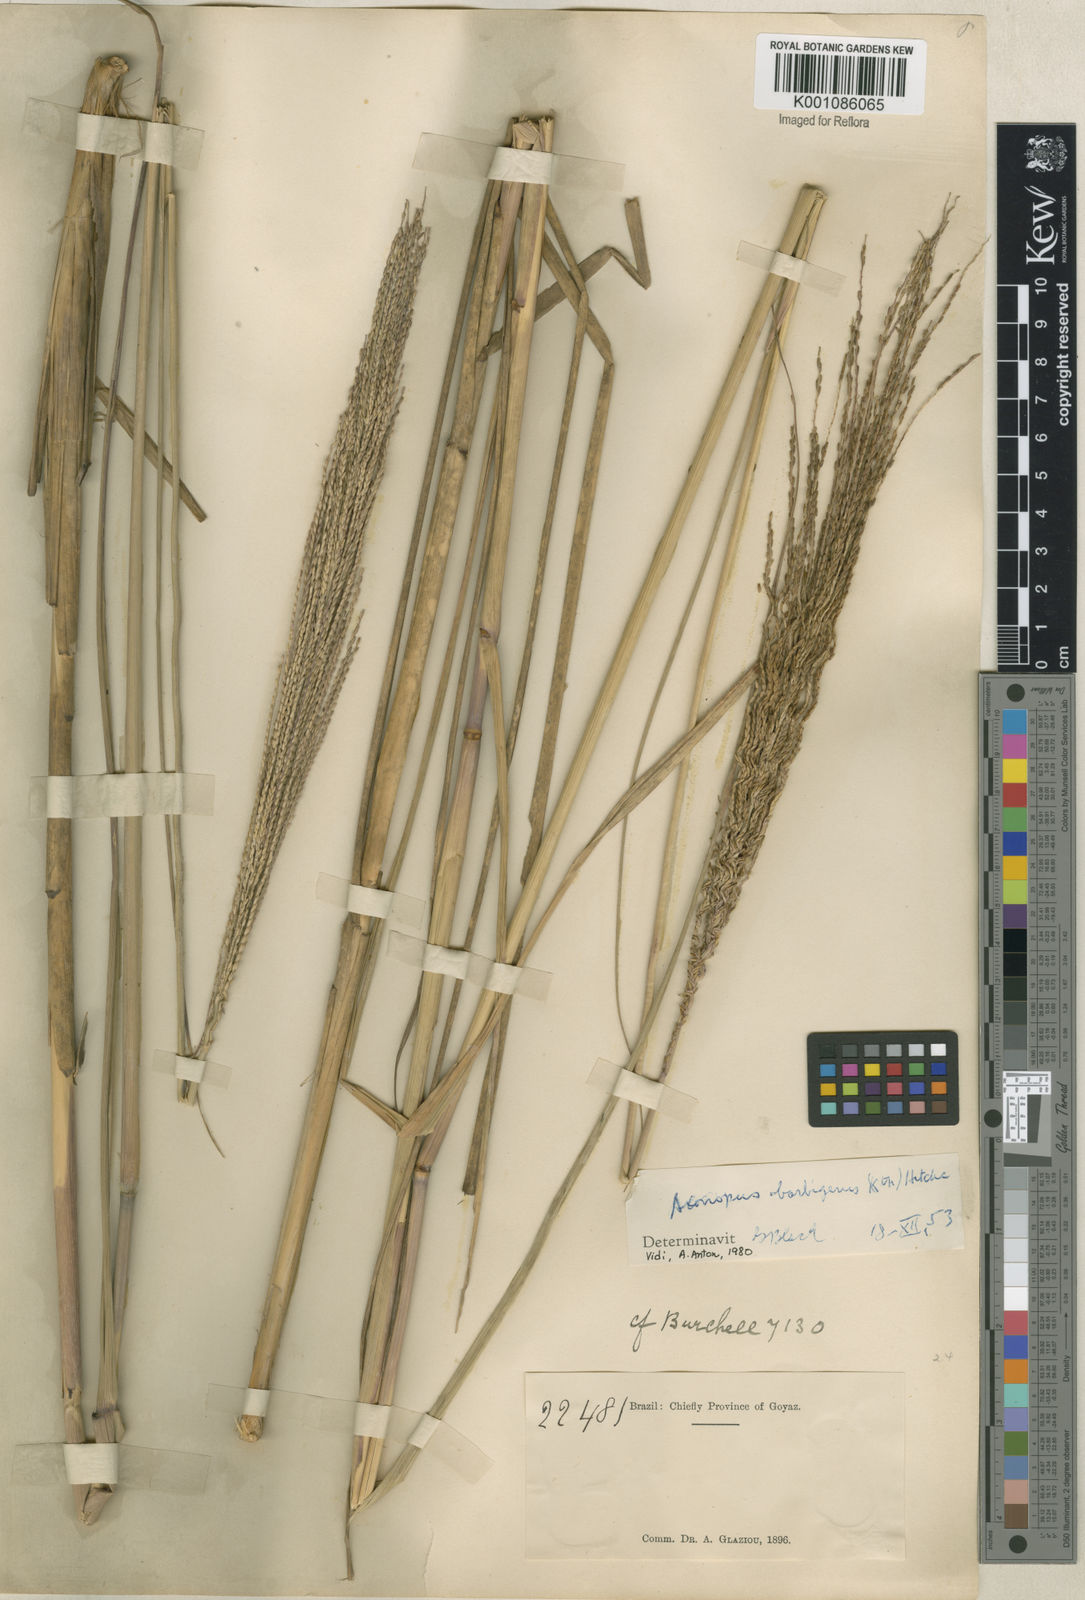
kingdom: Plantae
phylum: Tracheophyta
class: Liliopsida
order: Poales
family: Poaceae
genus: Axonopus
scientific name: Axonopus siccus
